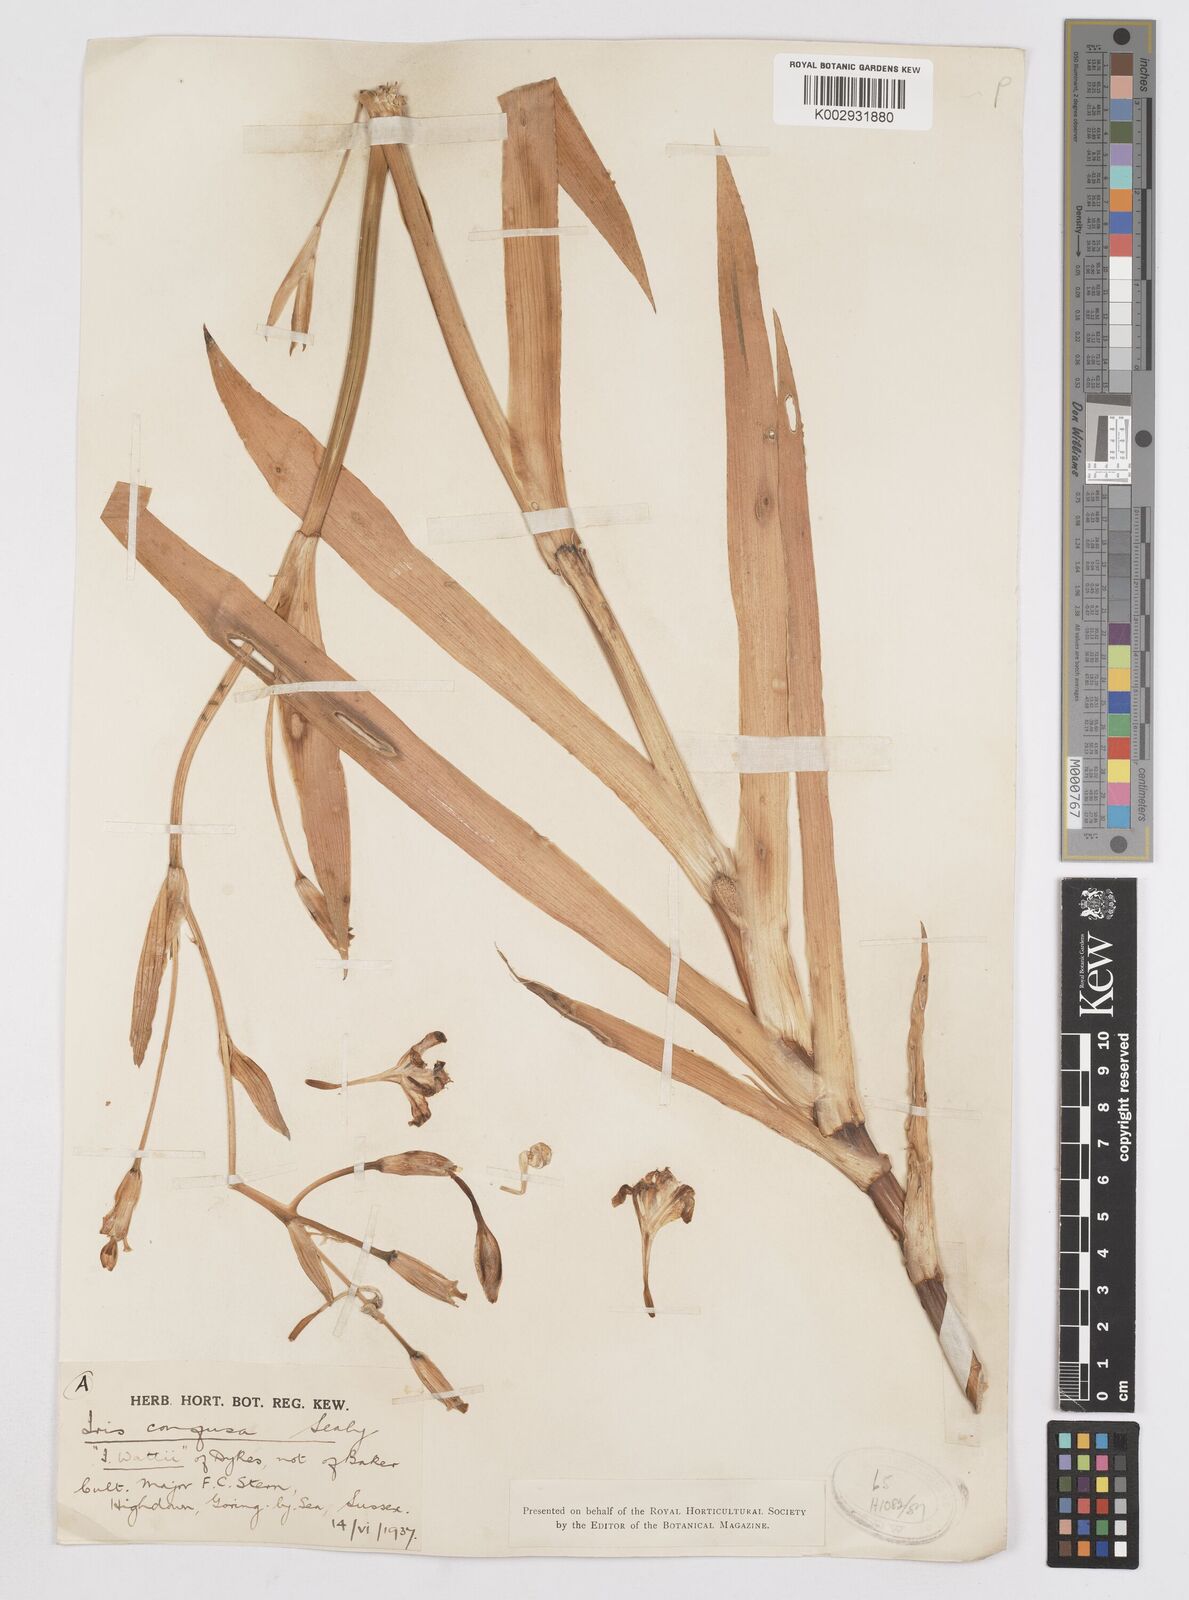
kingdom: Plantae
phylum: Tracheophyta
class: Liliopsida
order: Asparagales
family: Iridaceae
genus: Iris
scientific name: Iris confusa
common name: Flat bamboo-orchid
